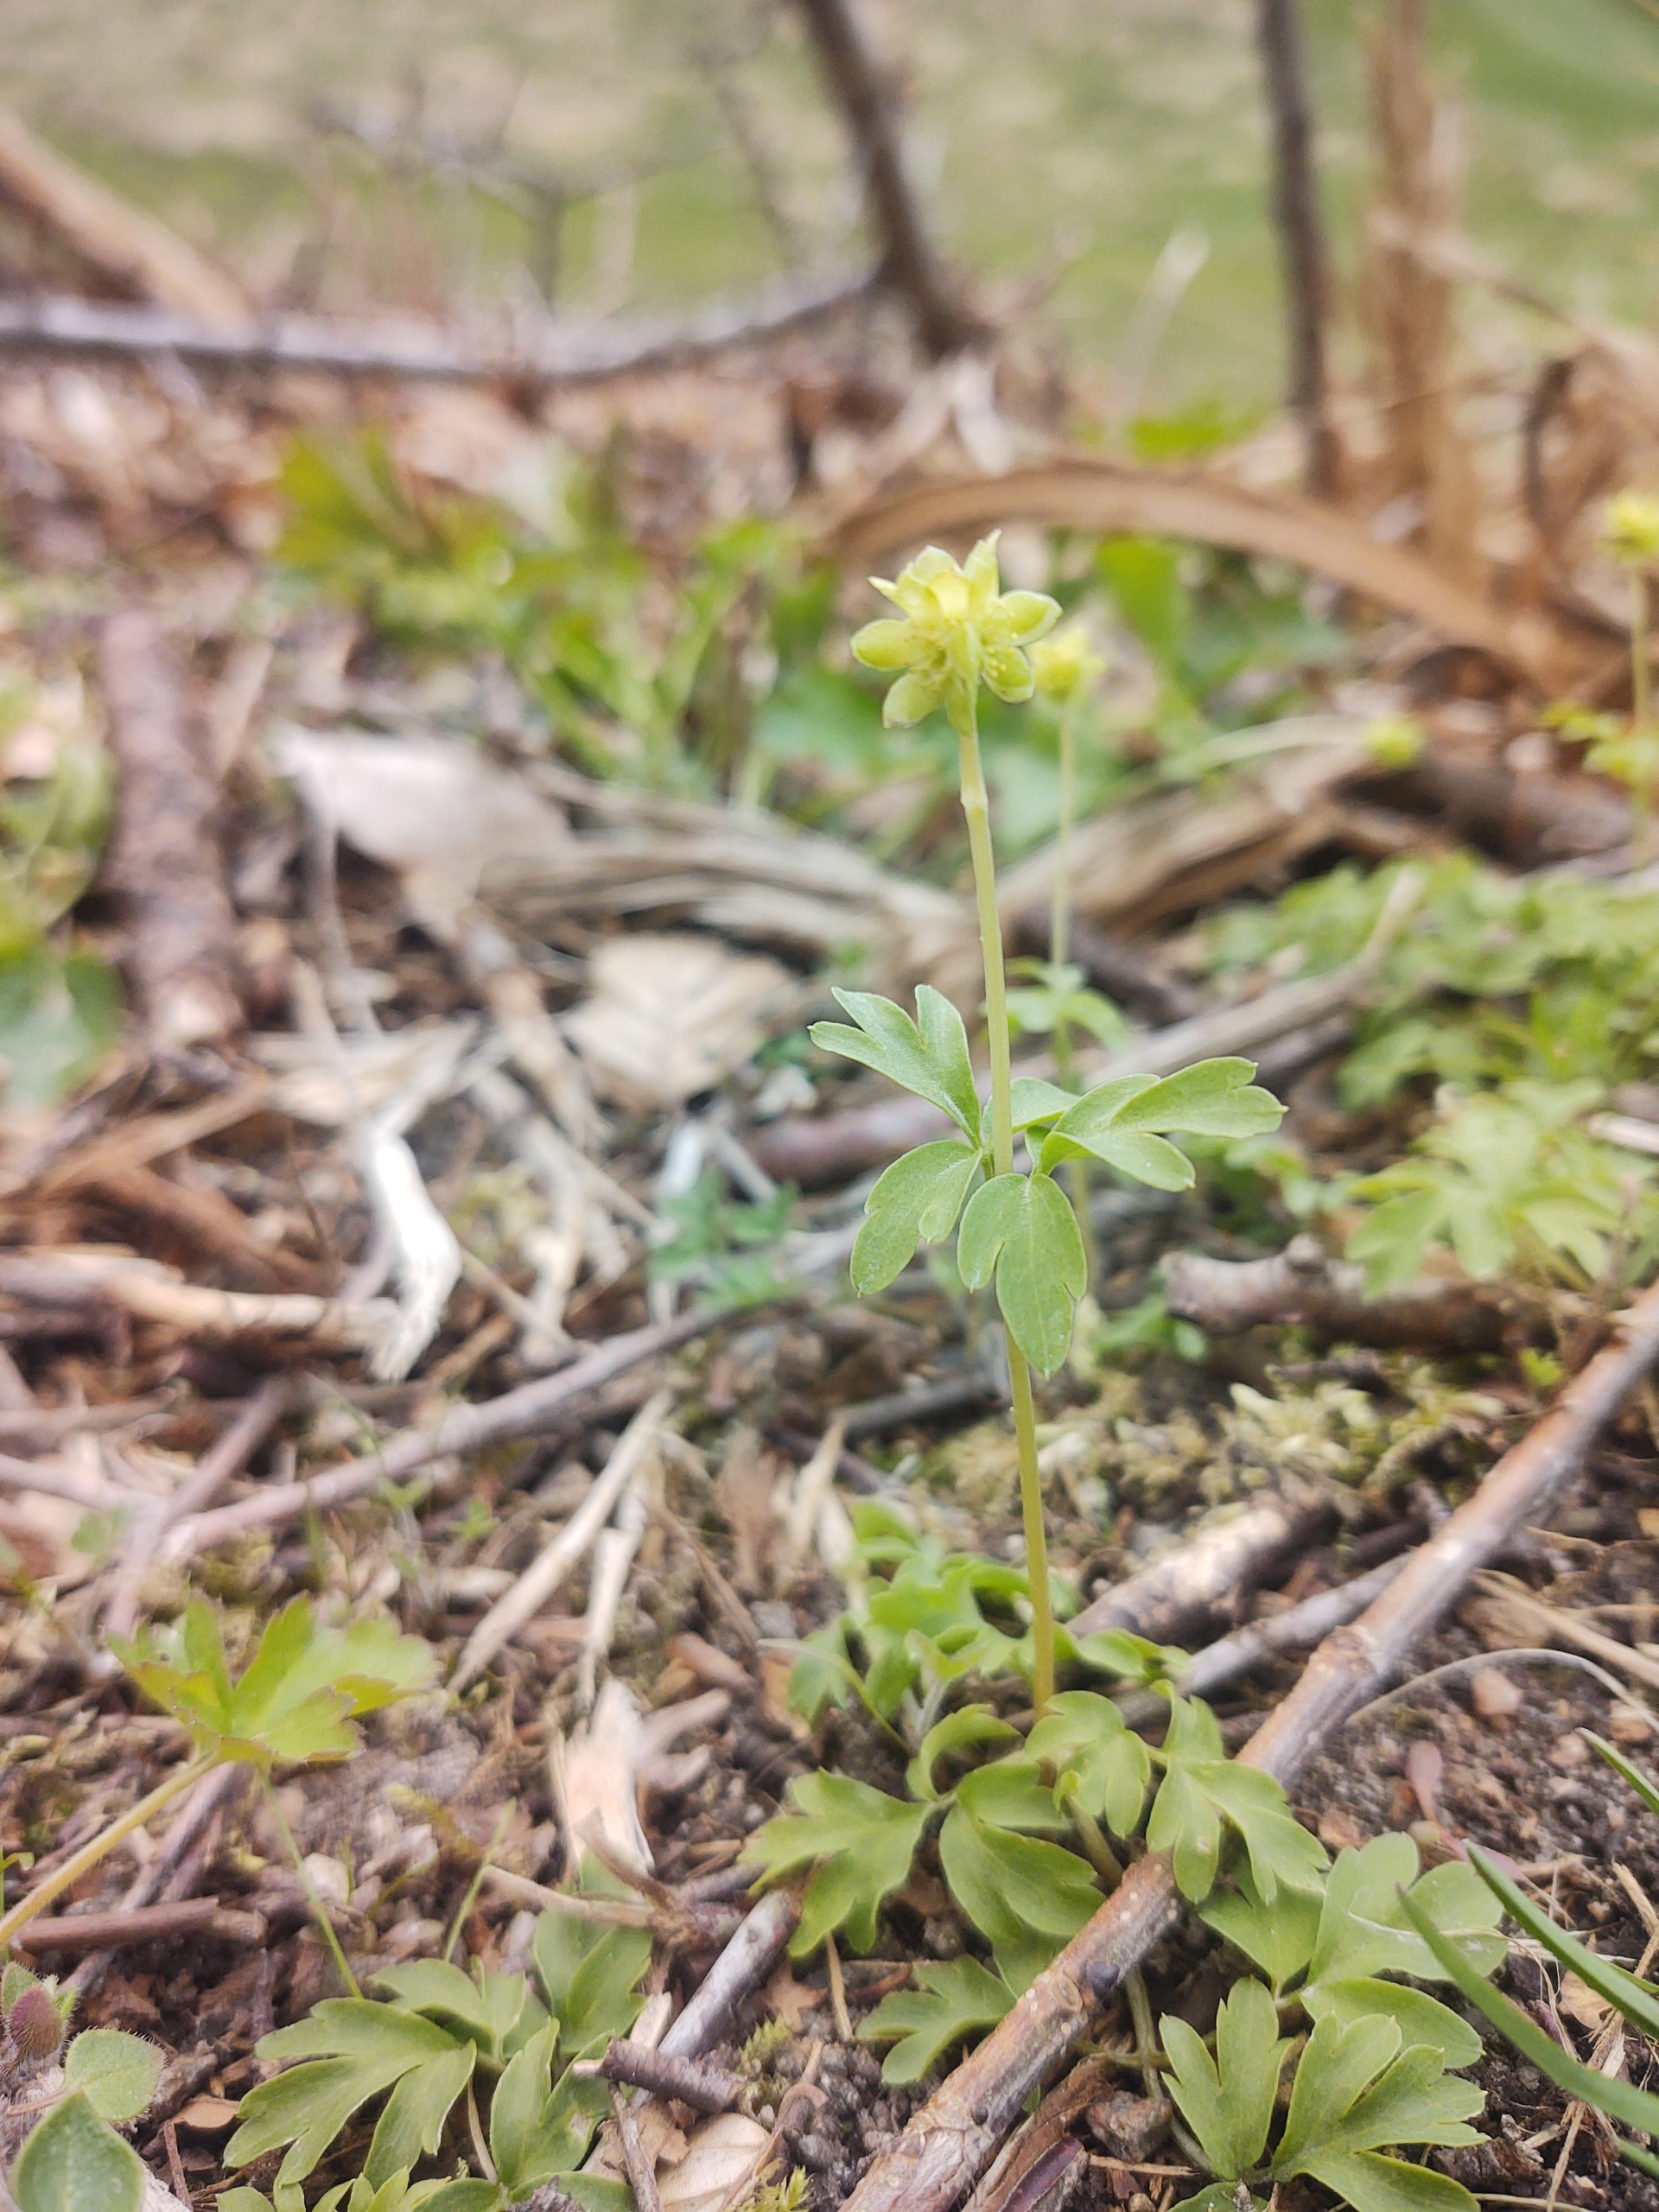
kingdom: Plantae
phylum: Tracheophyta
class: Magnoliopsida
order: Dipsacales
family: Viburnaceae
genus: Adoxa
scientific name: Adoxa moschatellina
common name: Desmerurt
